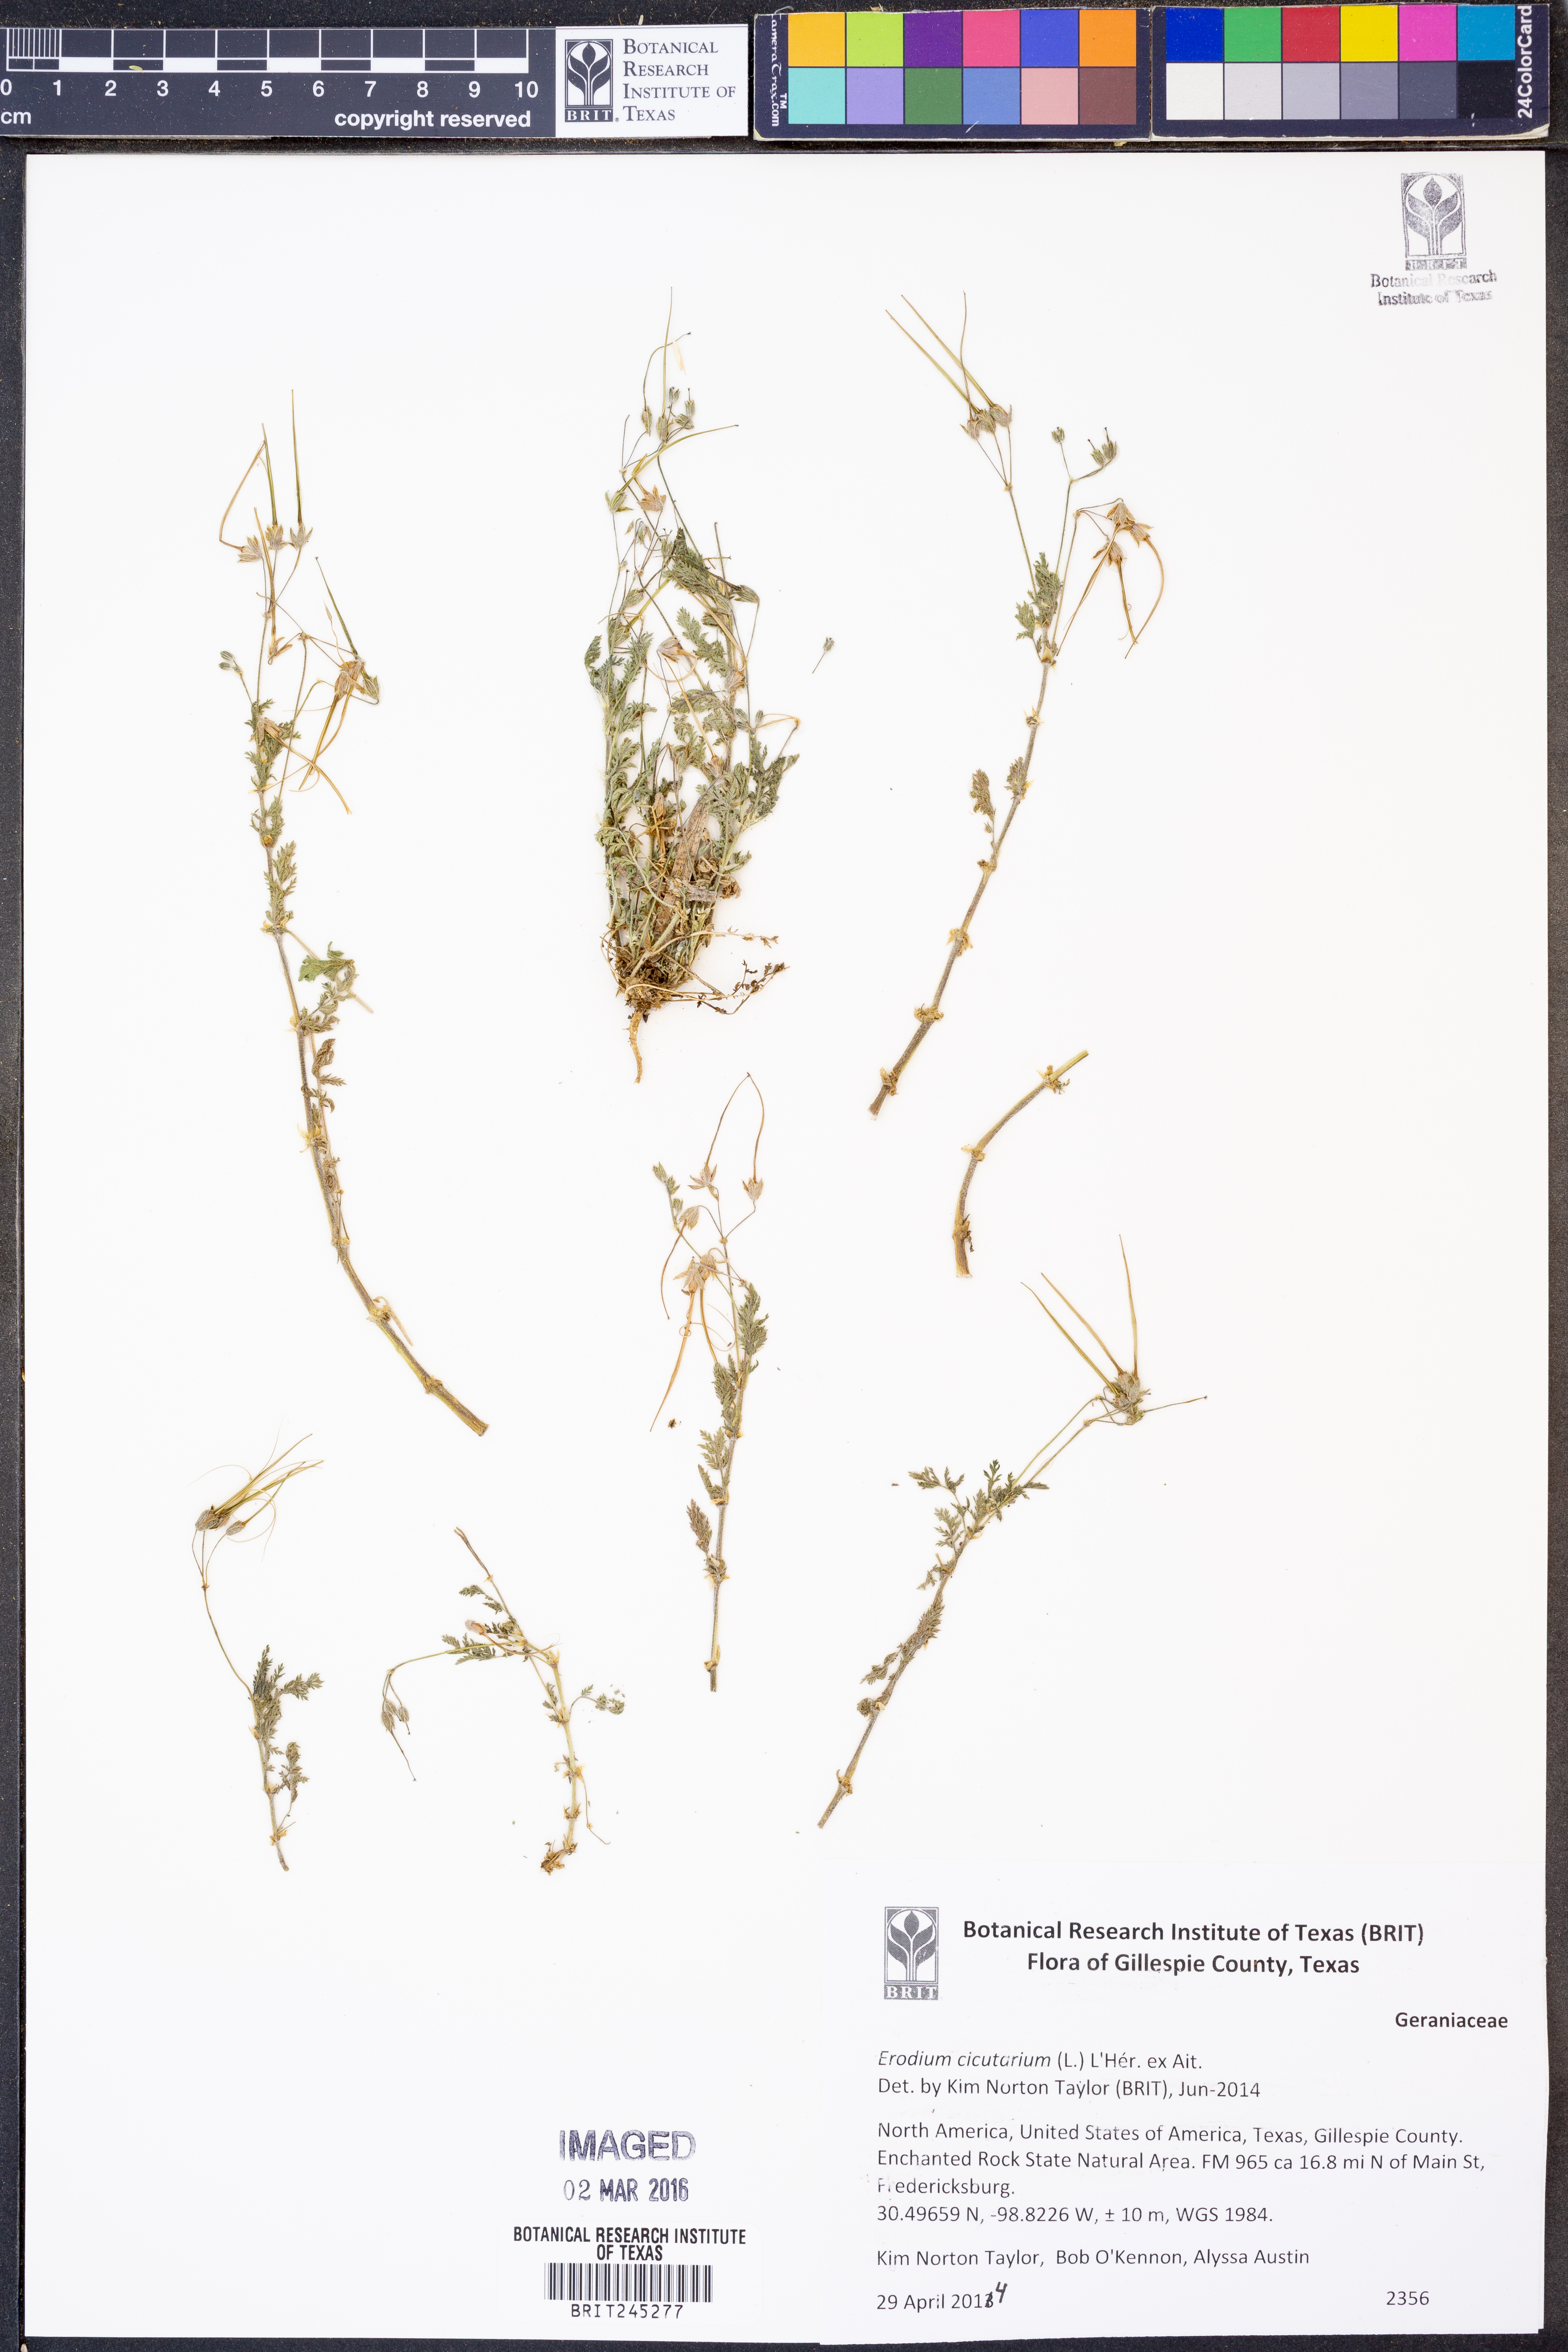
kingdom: Plantae
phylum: Tracheophyta
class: Magnoliopsida
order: Geraniales
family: Geraniaceae
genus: Erodium
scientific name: Erodium cicutarium
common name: Common stork's-bill
